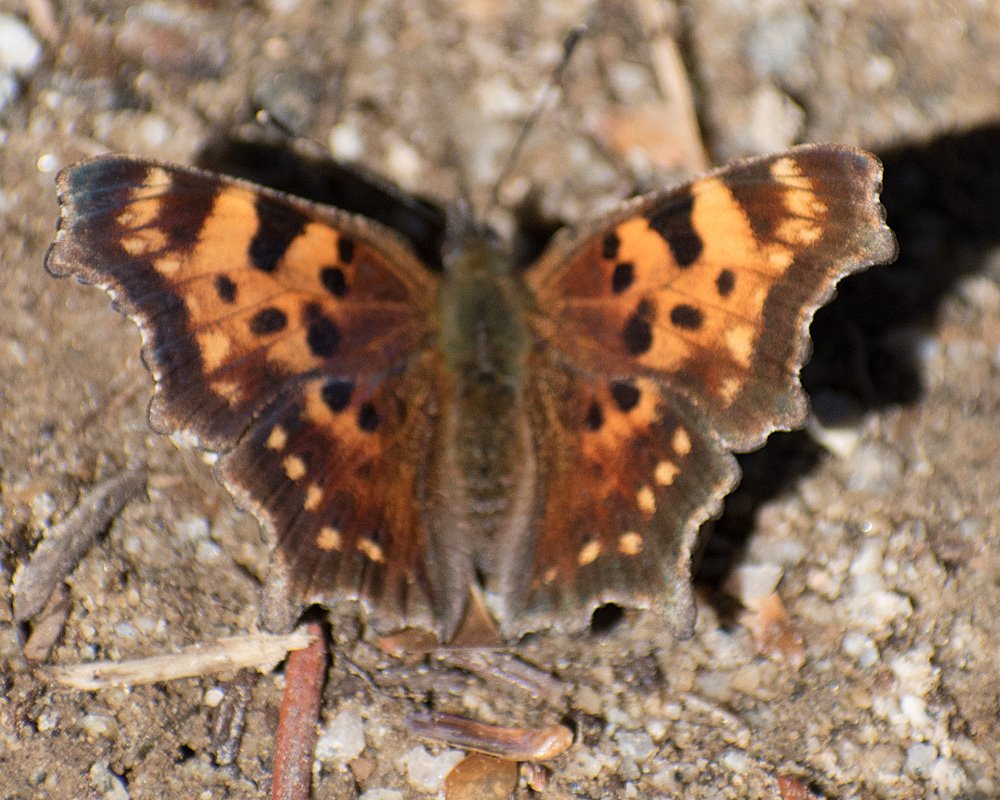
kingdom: Animalia
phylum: Arthropoda
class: Insecta
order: Lepidoptera
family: Nymphalidae
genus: Polygonia
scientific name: Polygonia faunus
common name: Green Comma
